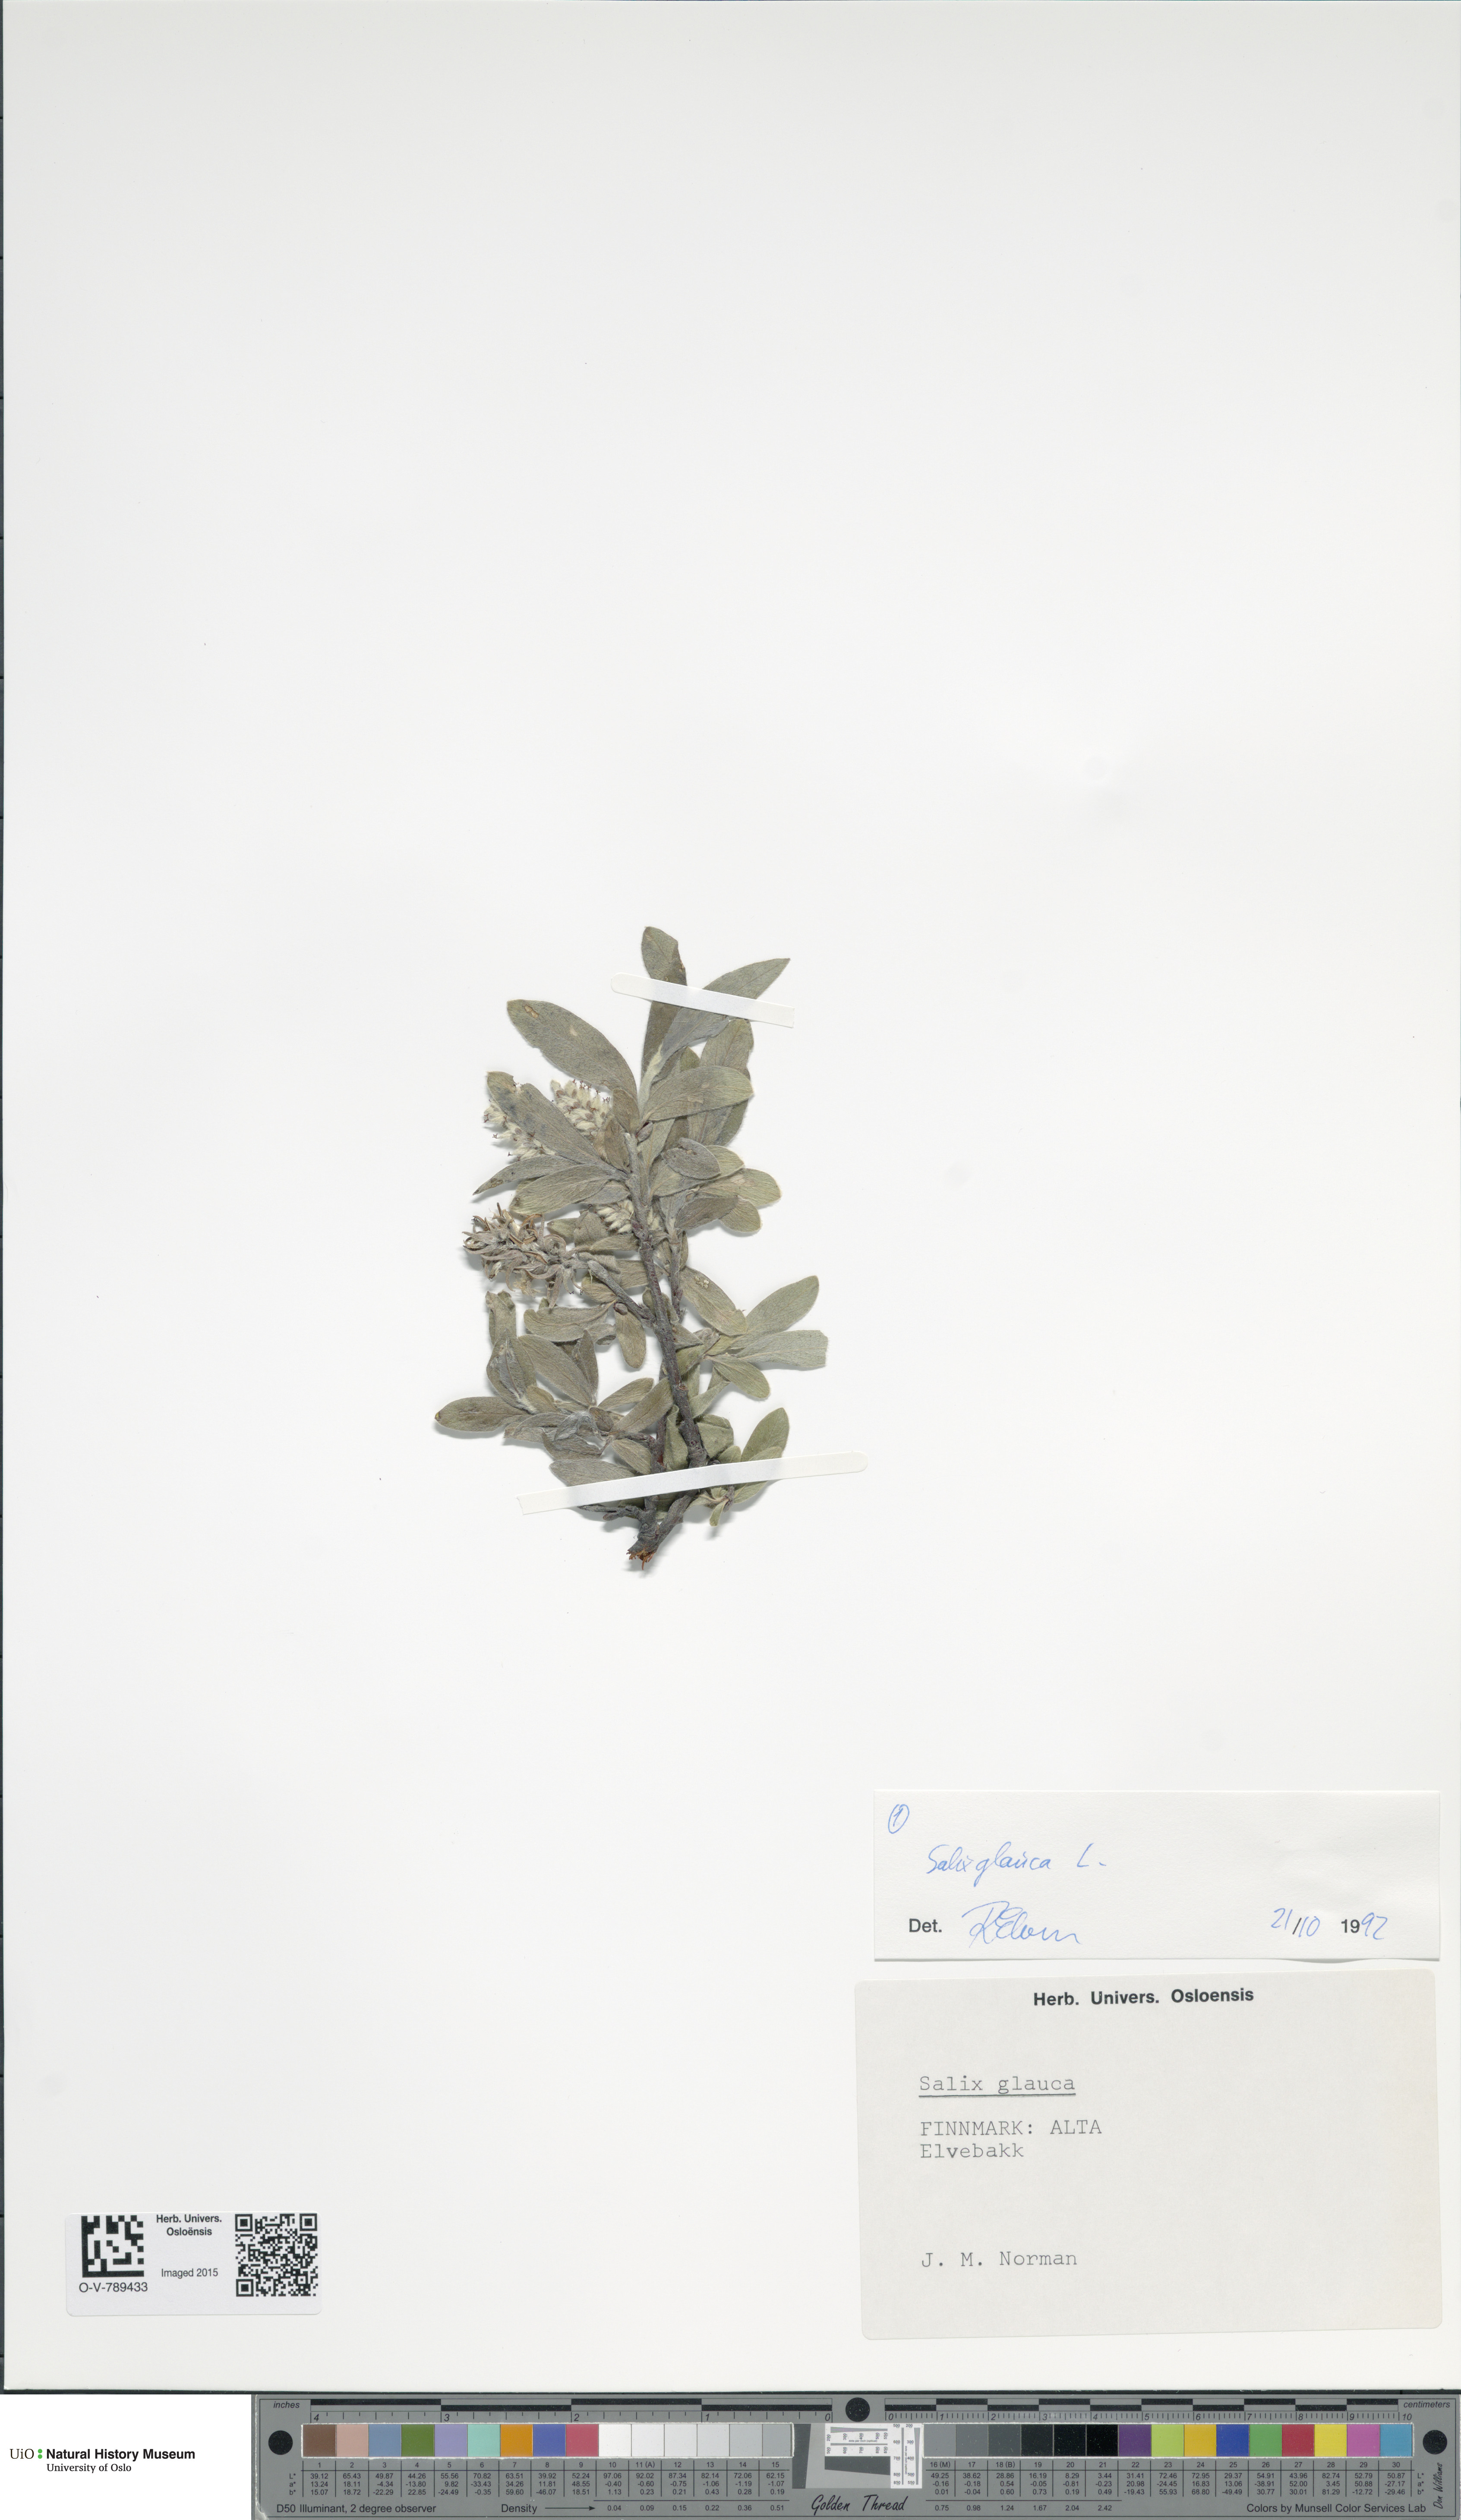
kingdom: Plantae
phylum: Tracheophyta
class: Magnoliopsida
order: Malpighiales
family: Salicaceae
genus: Salix
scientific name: Salix glauca
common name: Glaucous willow
